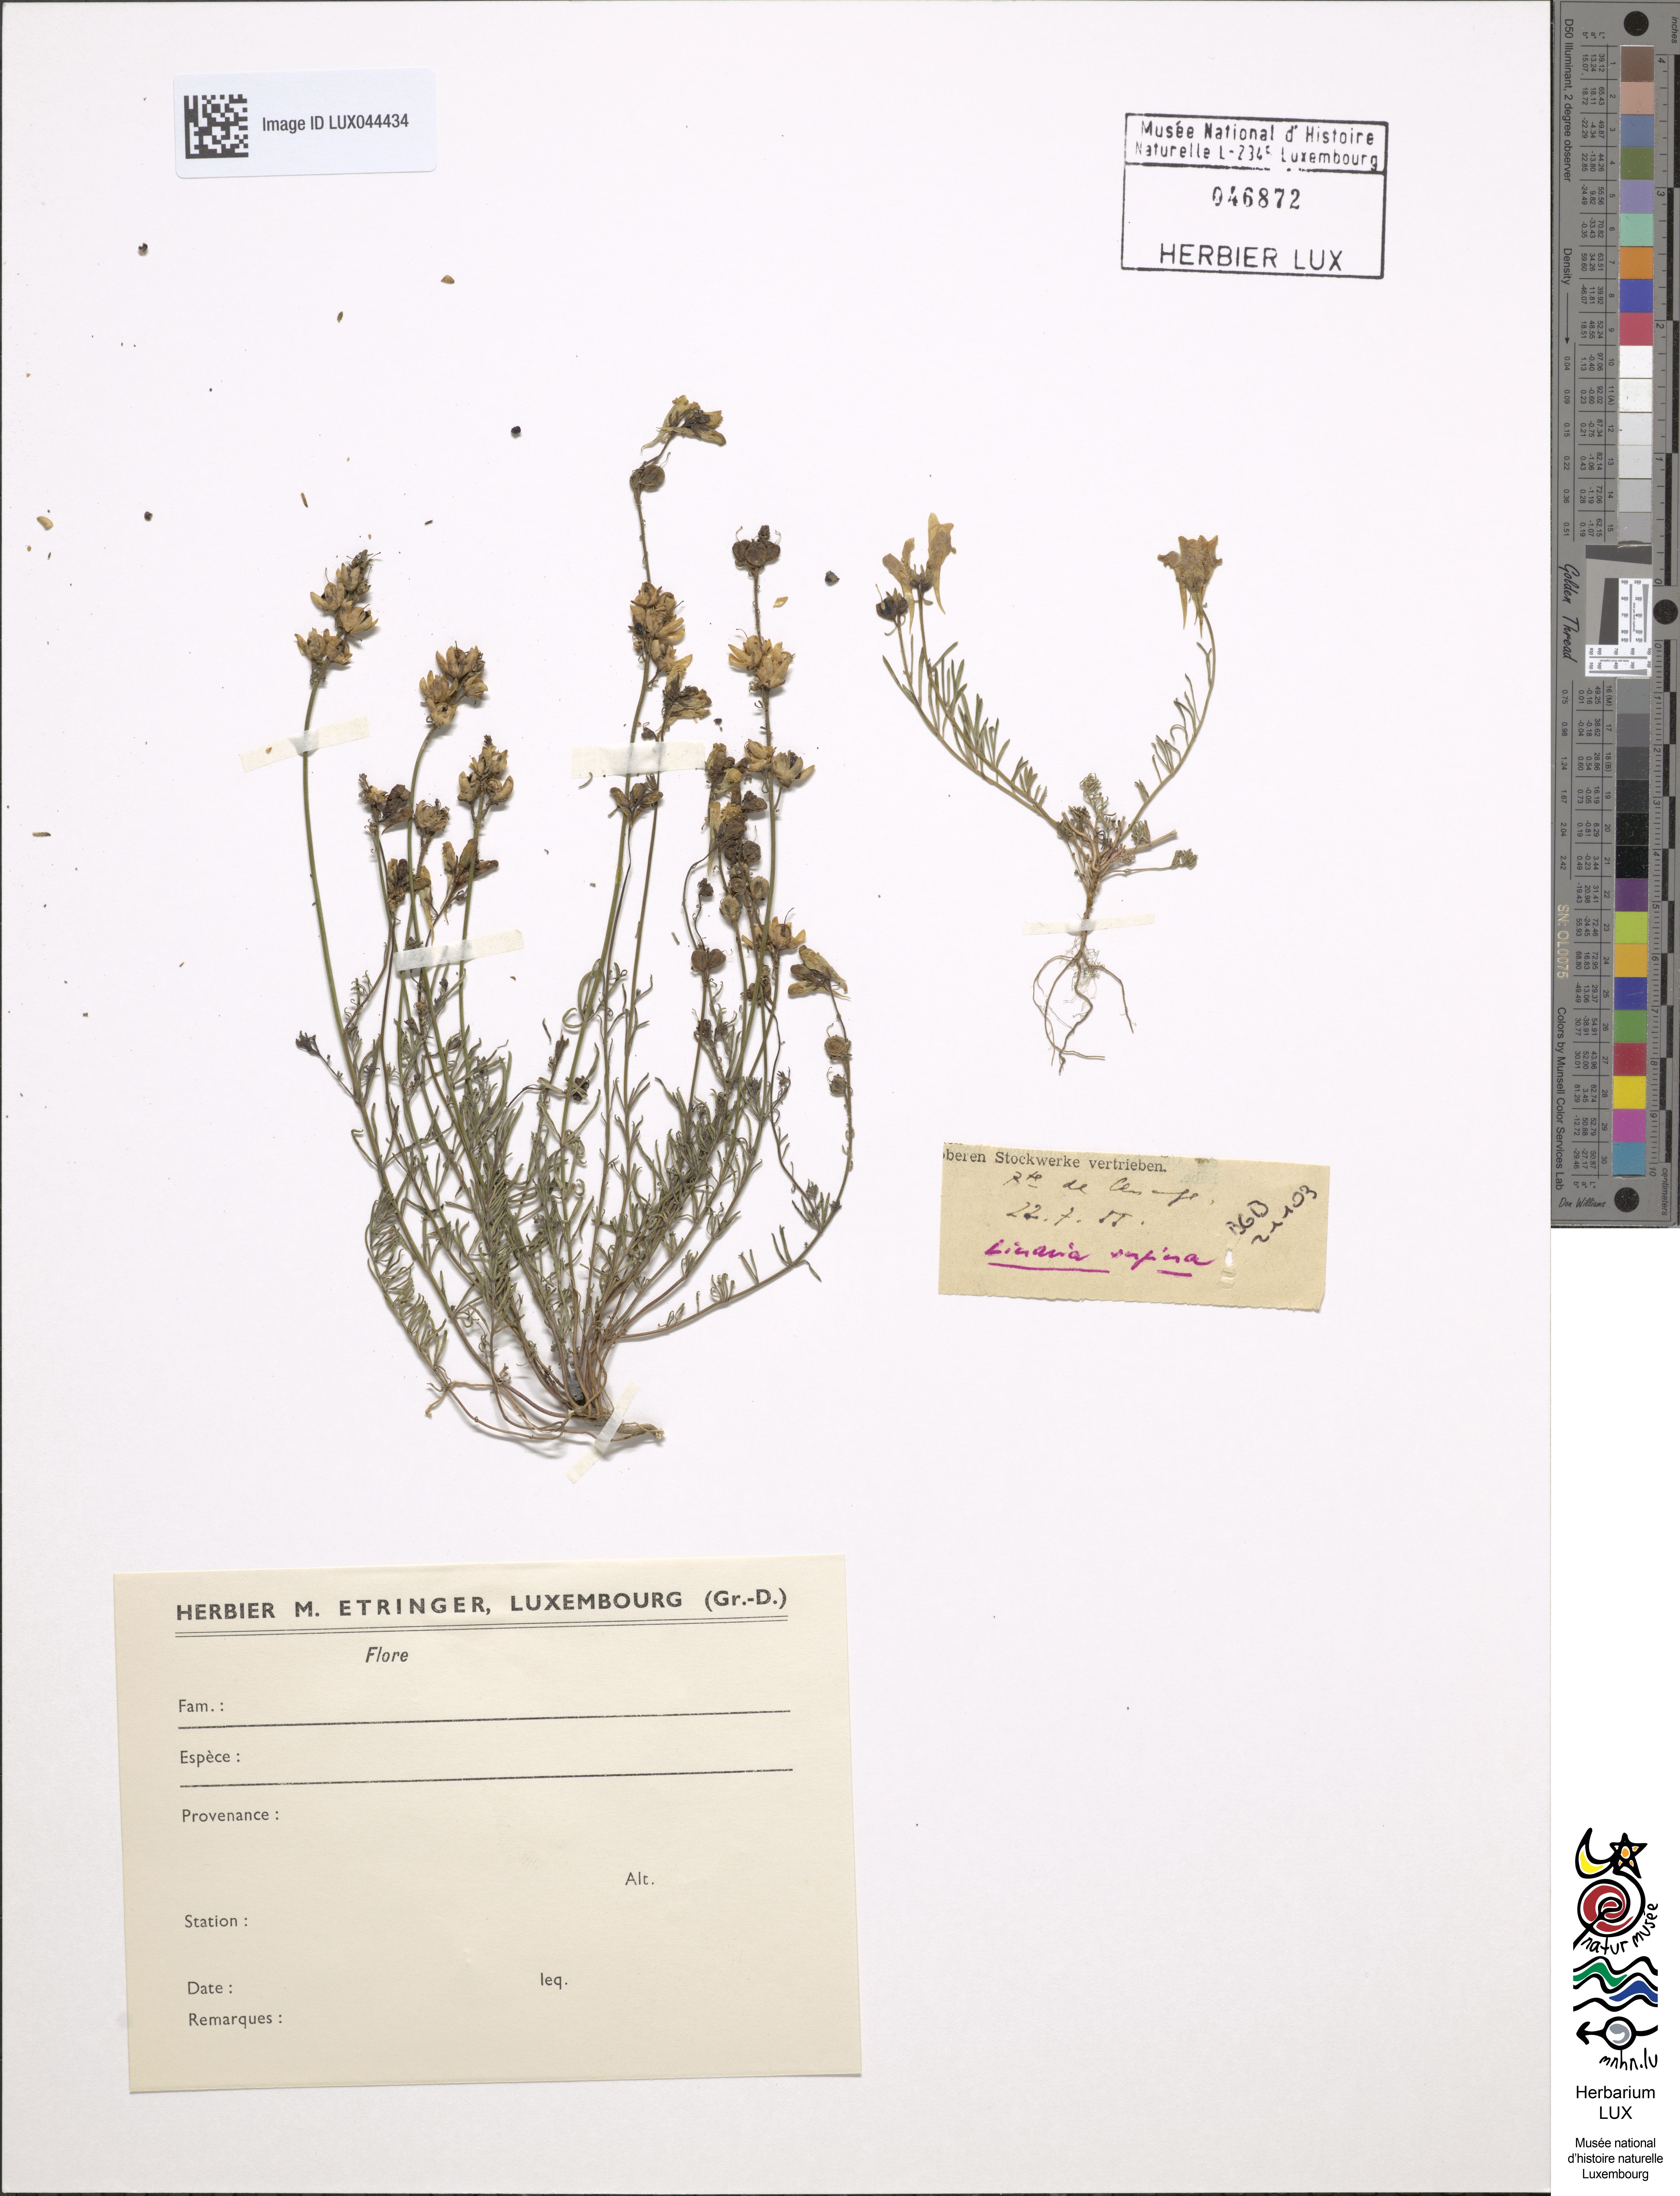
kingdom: Plantae
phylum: Tracheophyta
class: Magnoliopsida
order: Lamiales
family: Plantaginaceae
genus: Linaria
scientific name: Linaria supina
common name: Prostrate toadflax
